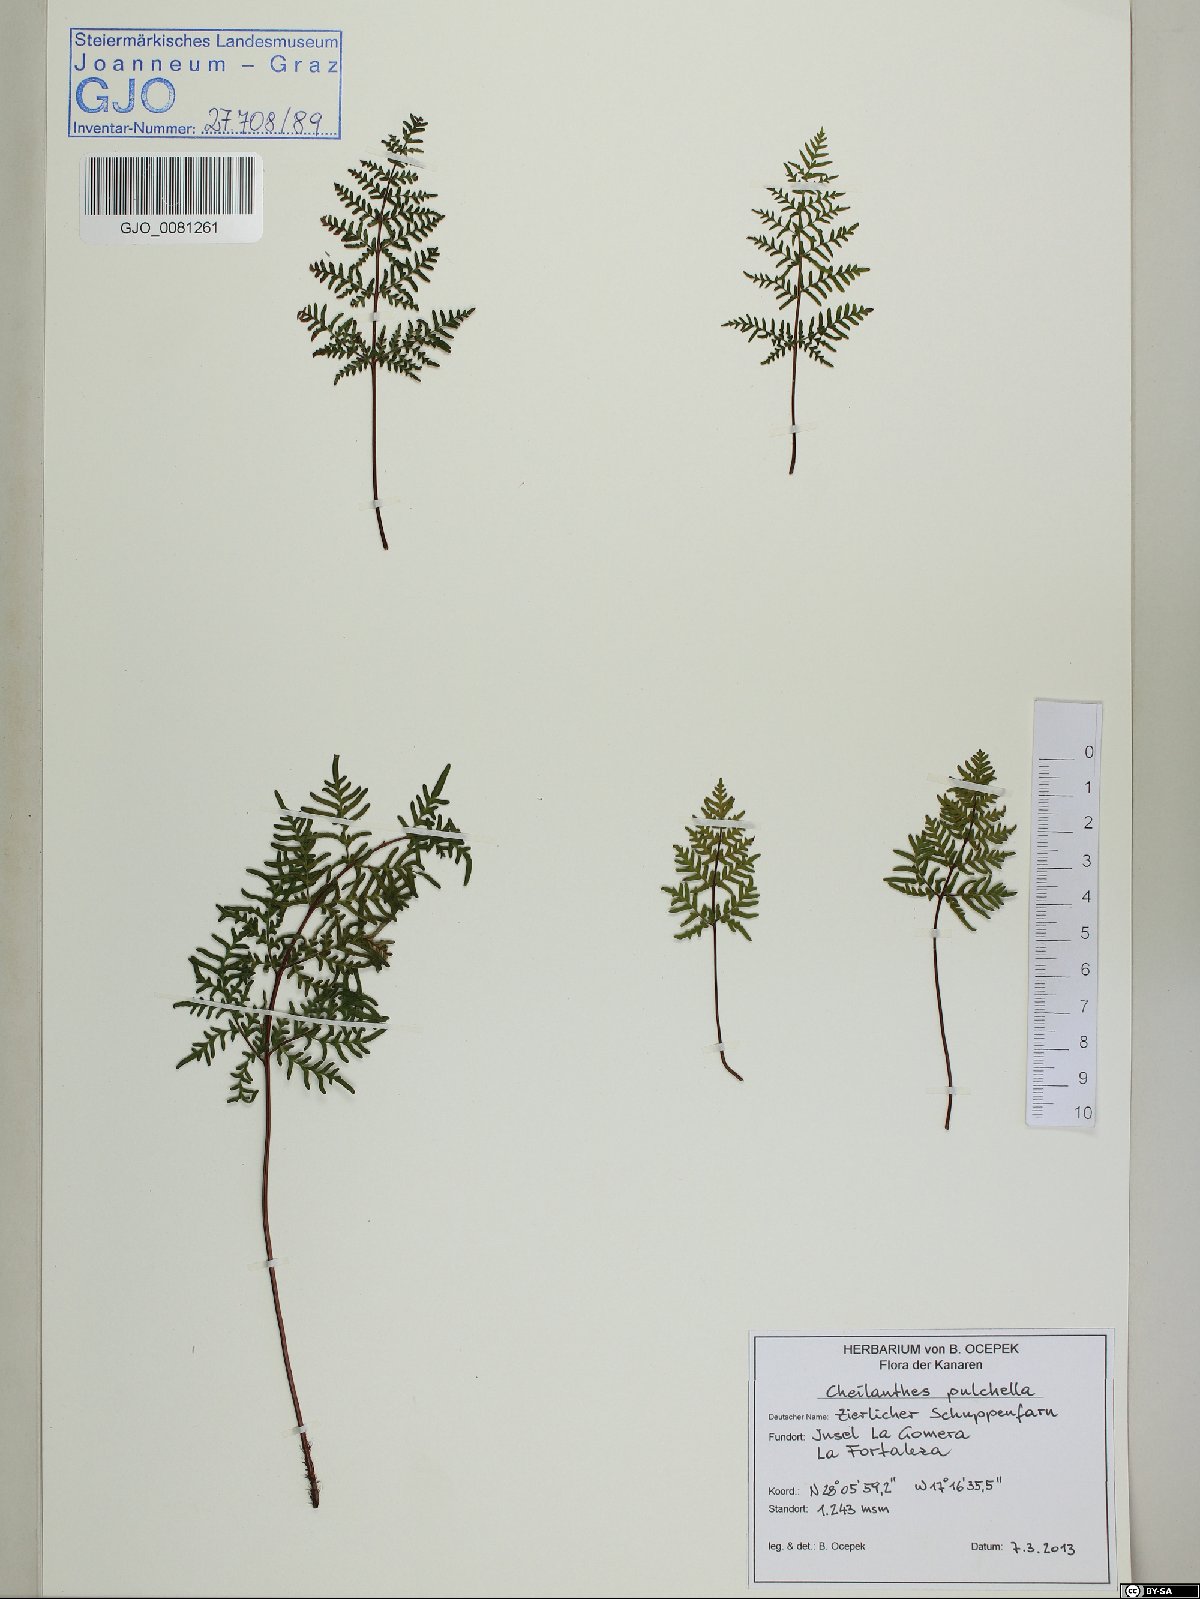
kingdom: Plantae
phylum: Tracheophyta
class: Polypodiopsida
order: Polypodiales
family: Pteridaceae
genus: Cheilanthes
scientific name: Cheilanthes pulchella
